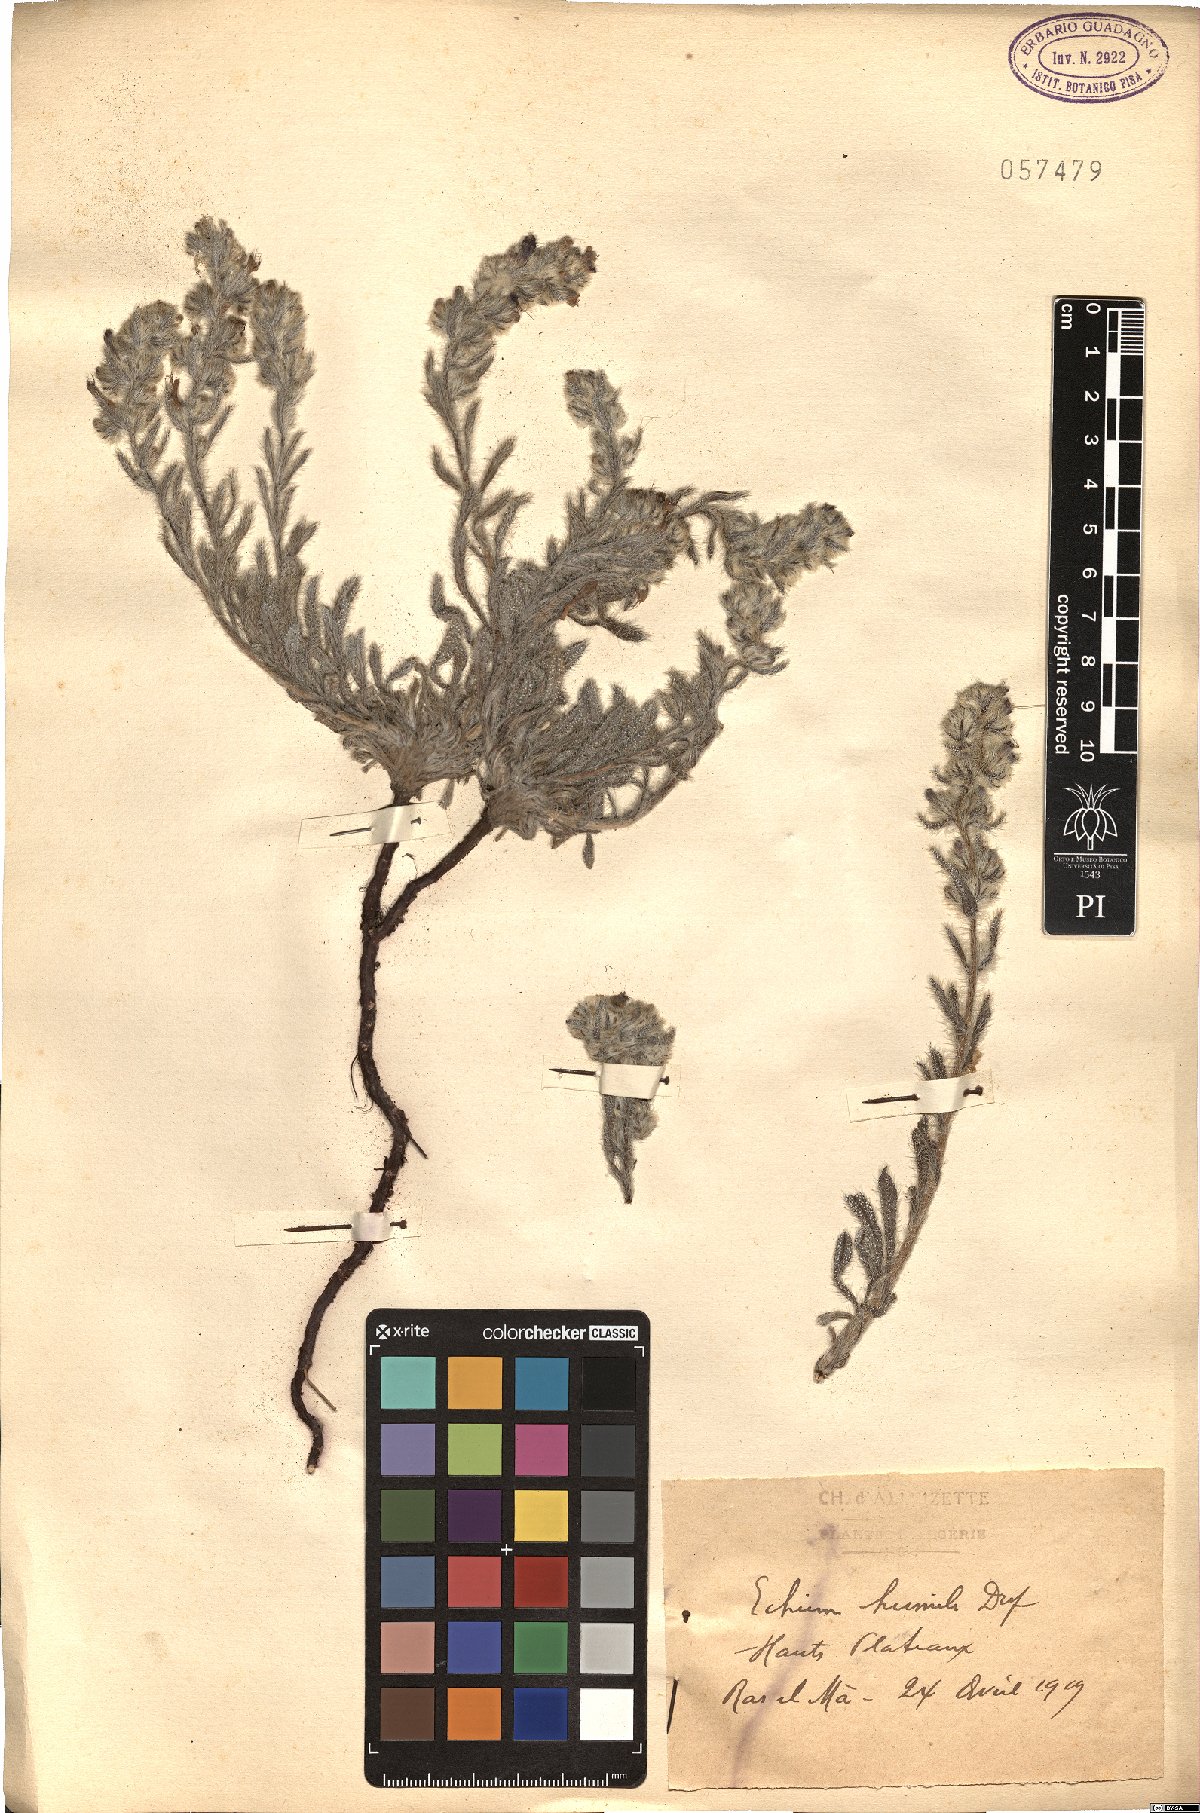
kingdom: Plantae
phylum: Tracheophyta
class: Magnoliopsida
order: Boraginales
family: Boraginaceae
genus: Echium
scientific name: Echium humile
